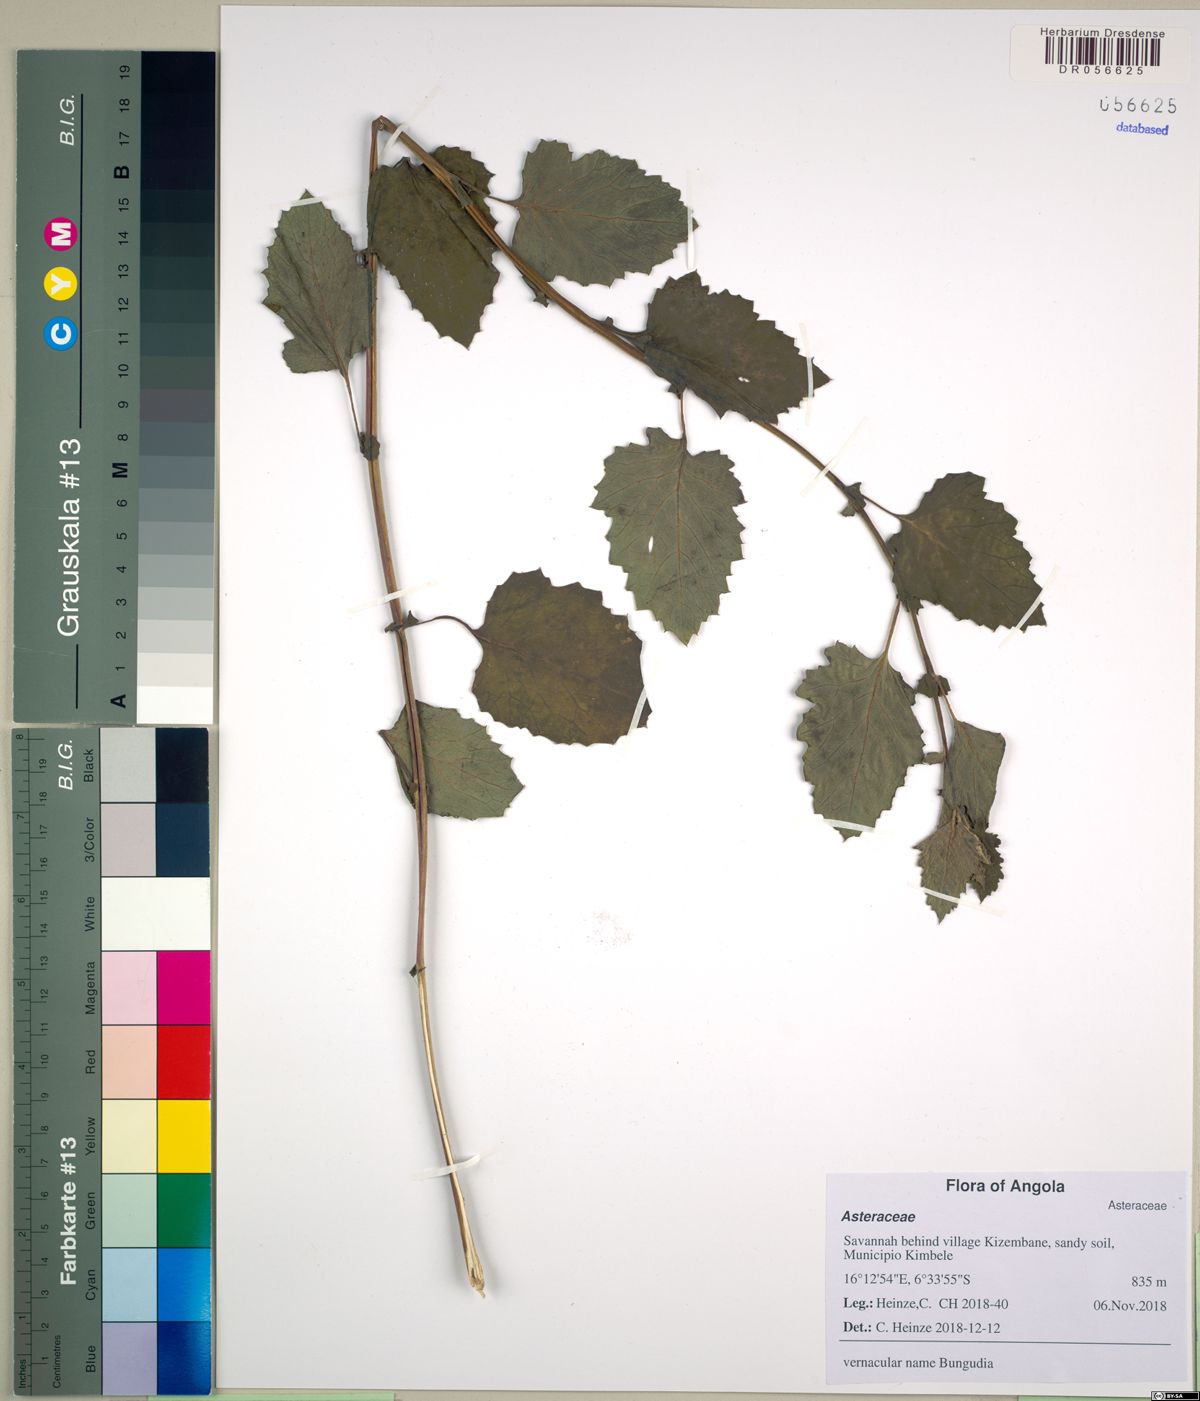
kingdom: Plantae
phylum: Tracheophyta
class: Magnoliopsida
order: Asterales
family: Asteraceae
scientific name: Asteraceae
